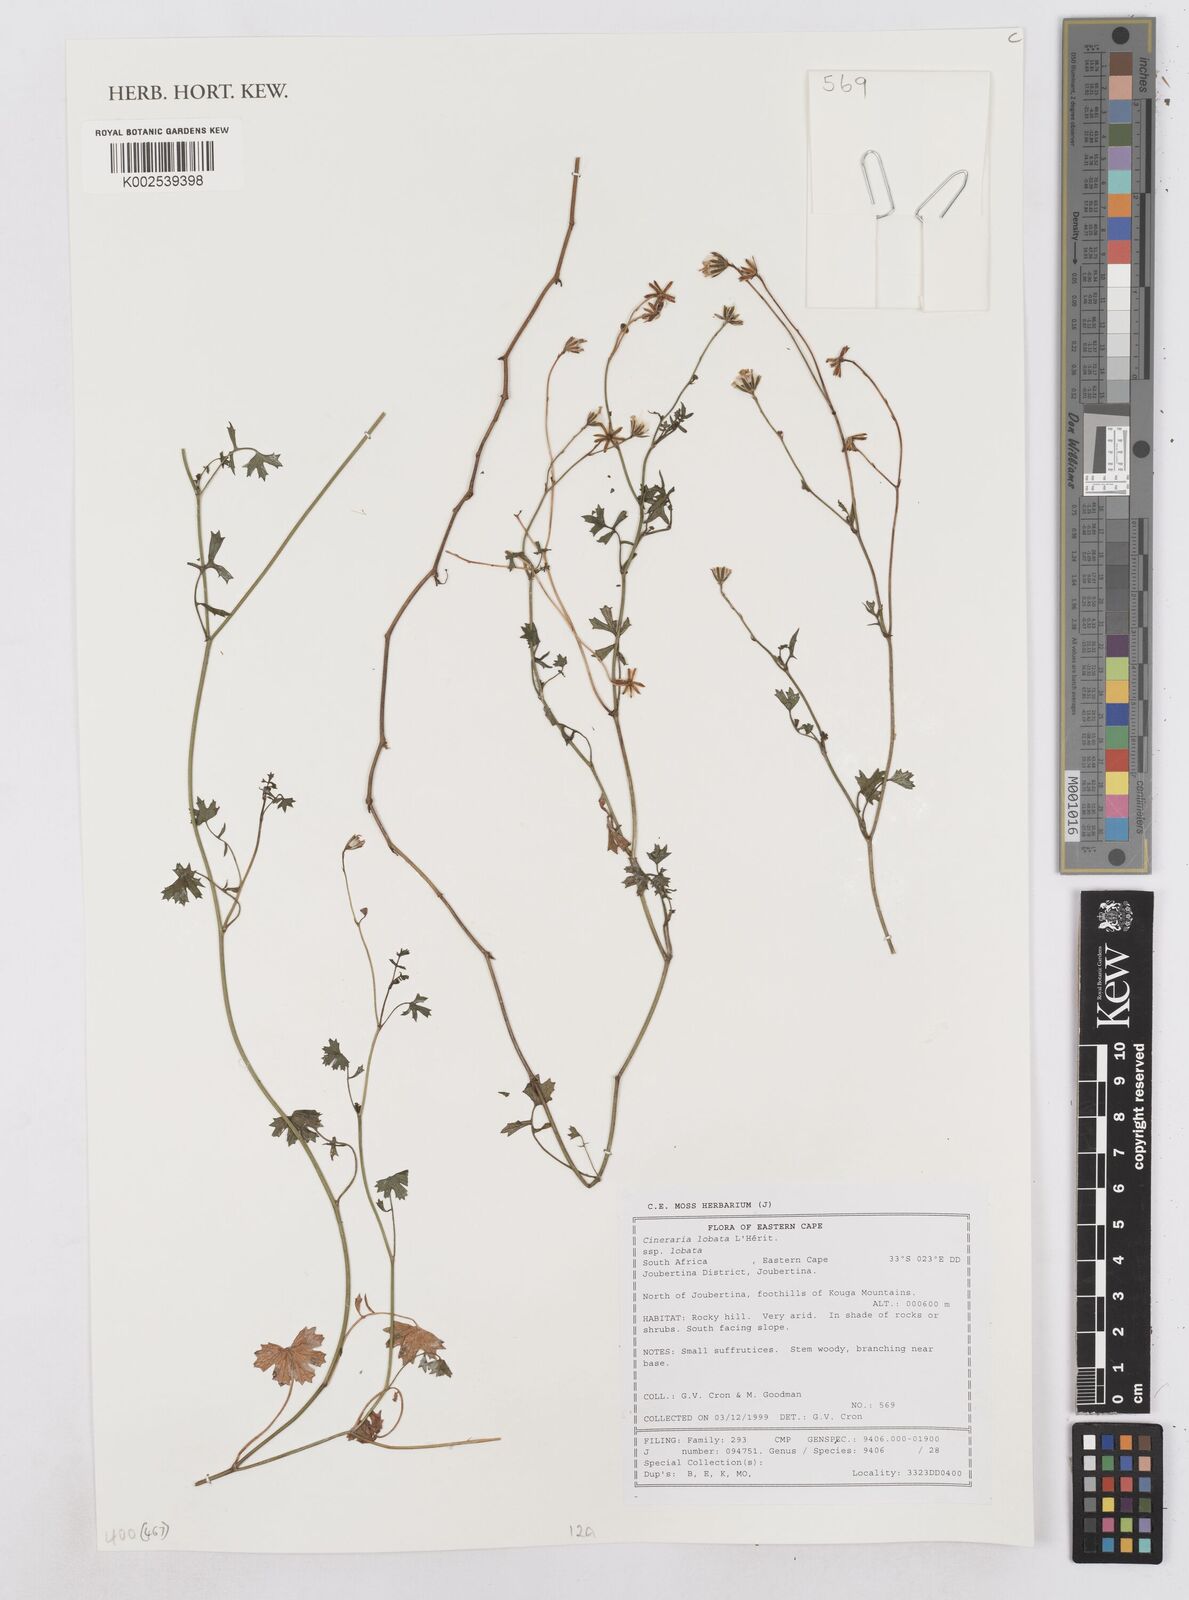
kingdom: Plantae
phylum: Tracheophyta
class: Magnoliopsida
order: Asterales
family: Asteraceae
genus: Cineraria
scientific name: Cineraria
